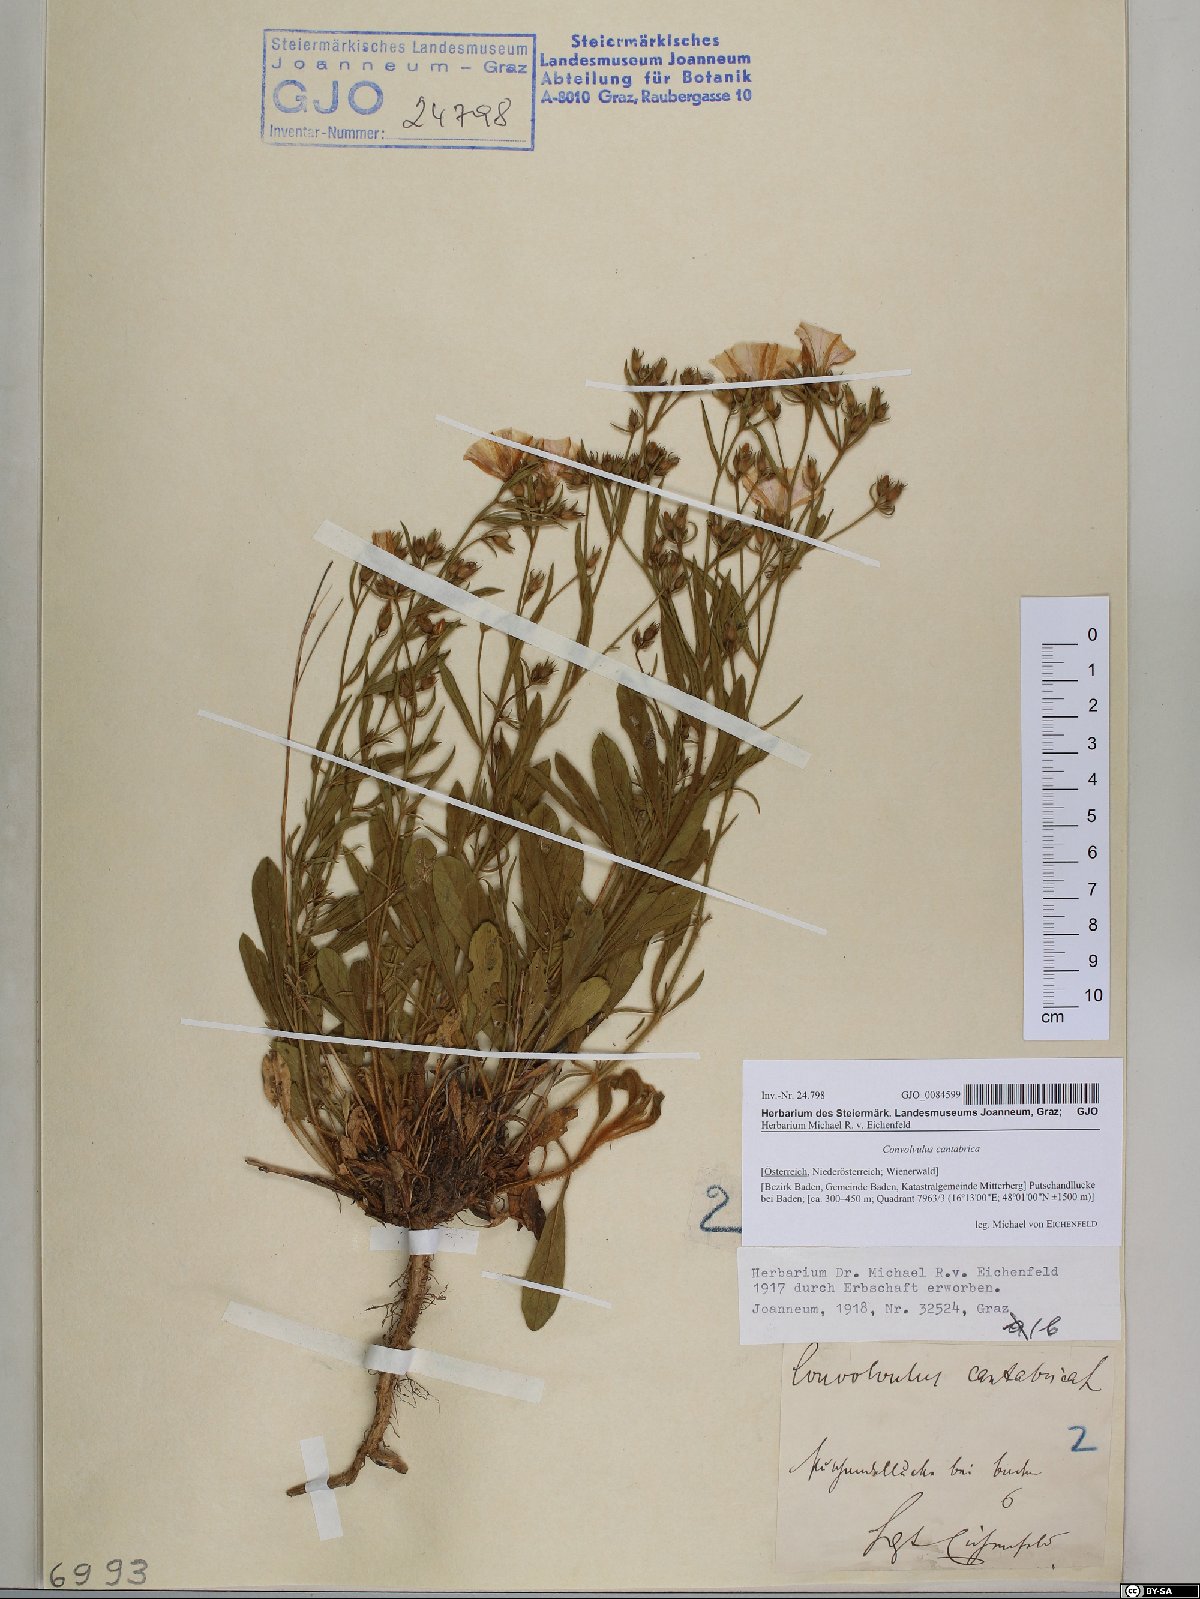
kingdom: Plantae
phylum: Tracheophyta
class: Magnoliopsida
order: Solanales
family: Convolvulaceae
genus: Convolvulus
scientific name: Convolvulus cantabrica
